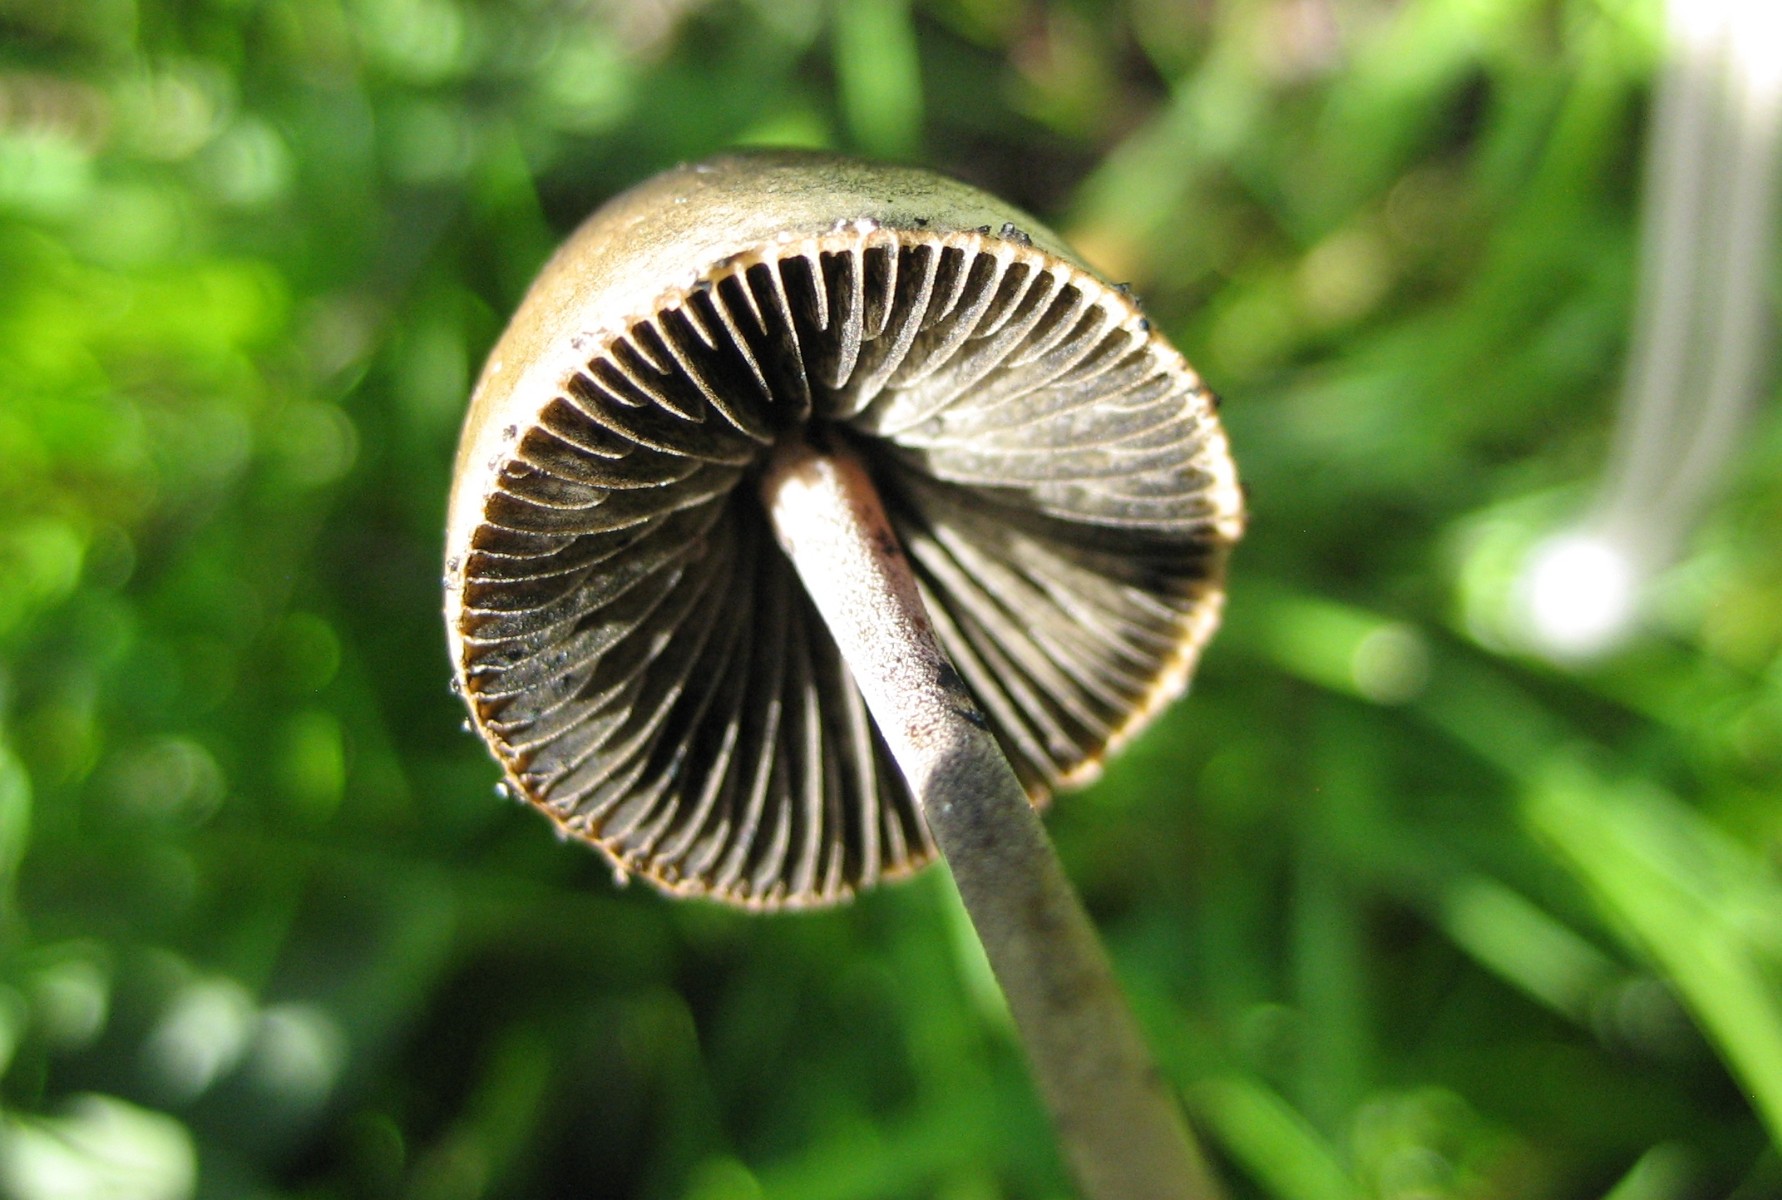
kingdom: Fungi
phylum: Basidiomycota
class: Agaricomycetes
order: Agaricales
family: Bolbitiaceae
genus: Panaeolus
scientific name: Panaeolus papilionaceus
